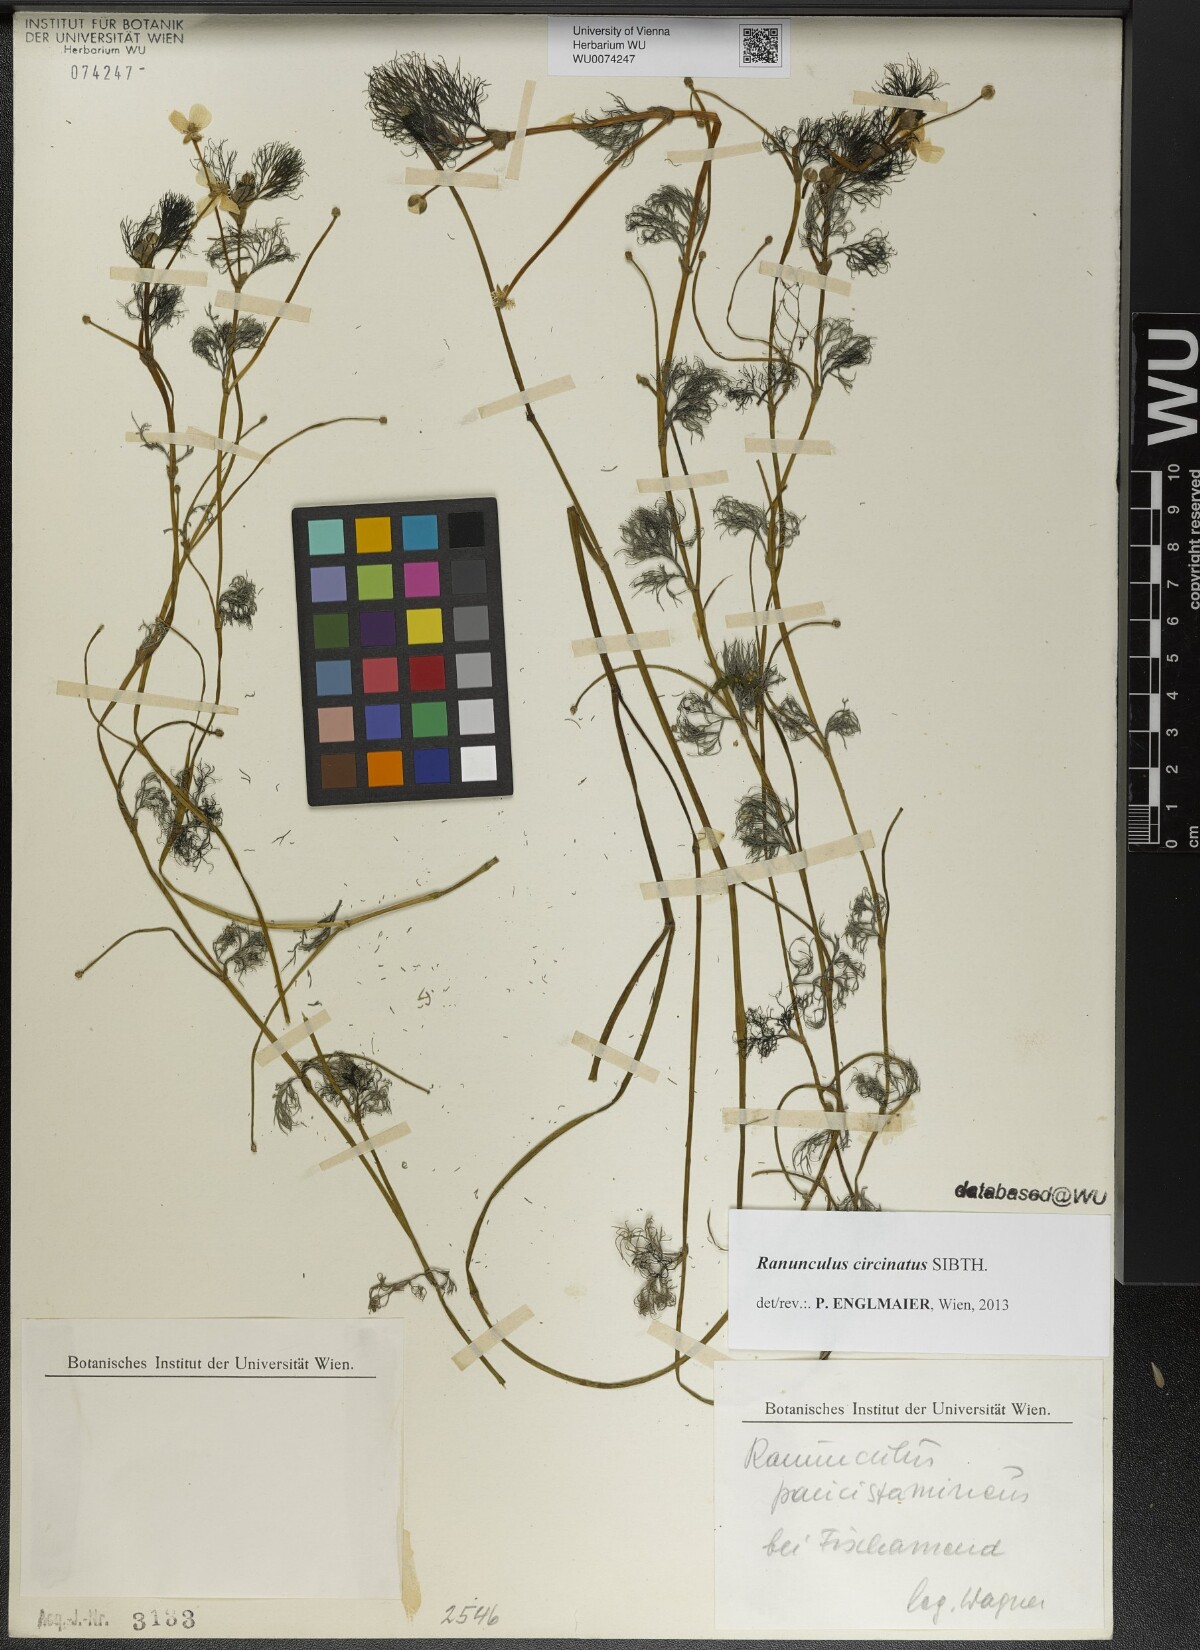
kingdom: Plantae
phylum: Tracheophyta
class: Magnoliopsida
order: Ranunculales
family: Ranunculaceae
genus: Ranunculus
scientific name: Ranunculus circinatus
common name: Fan-leaved water-crowfoot
